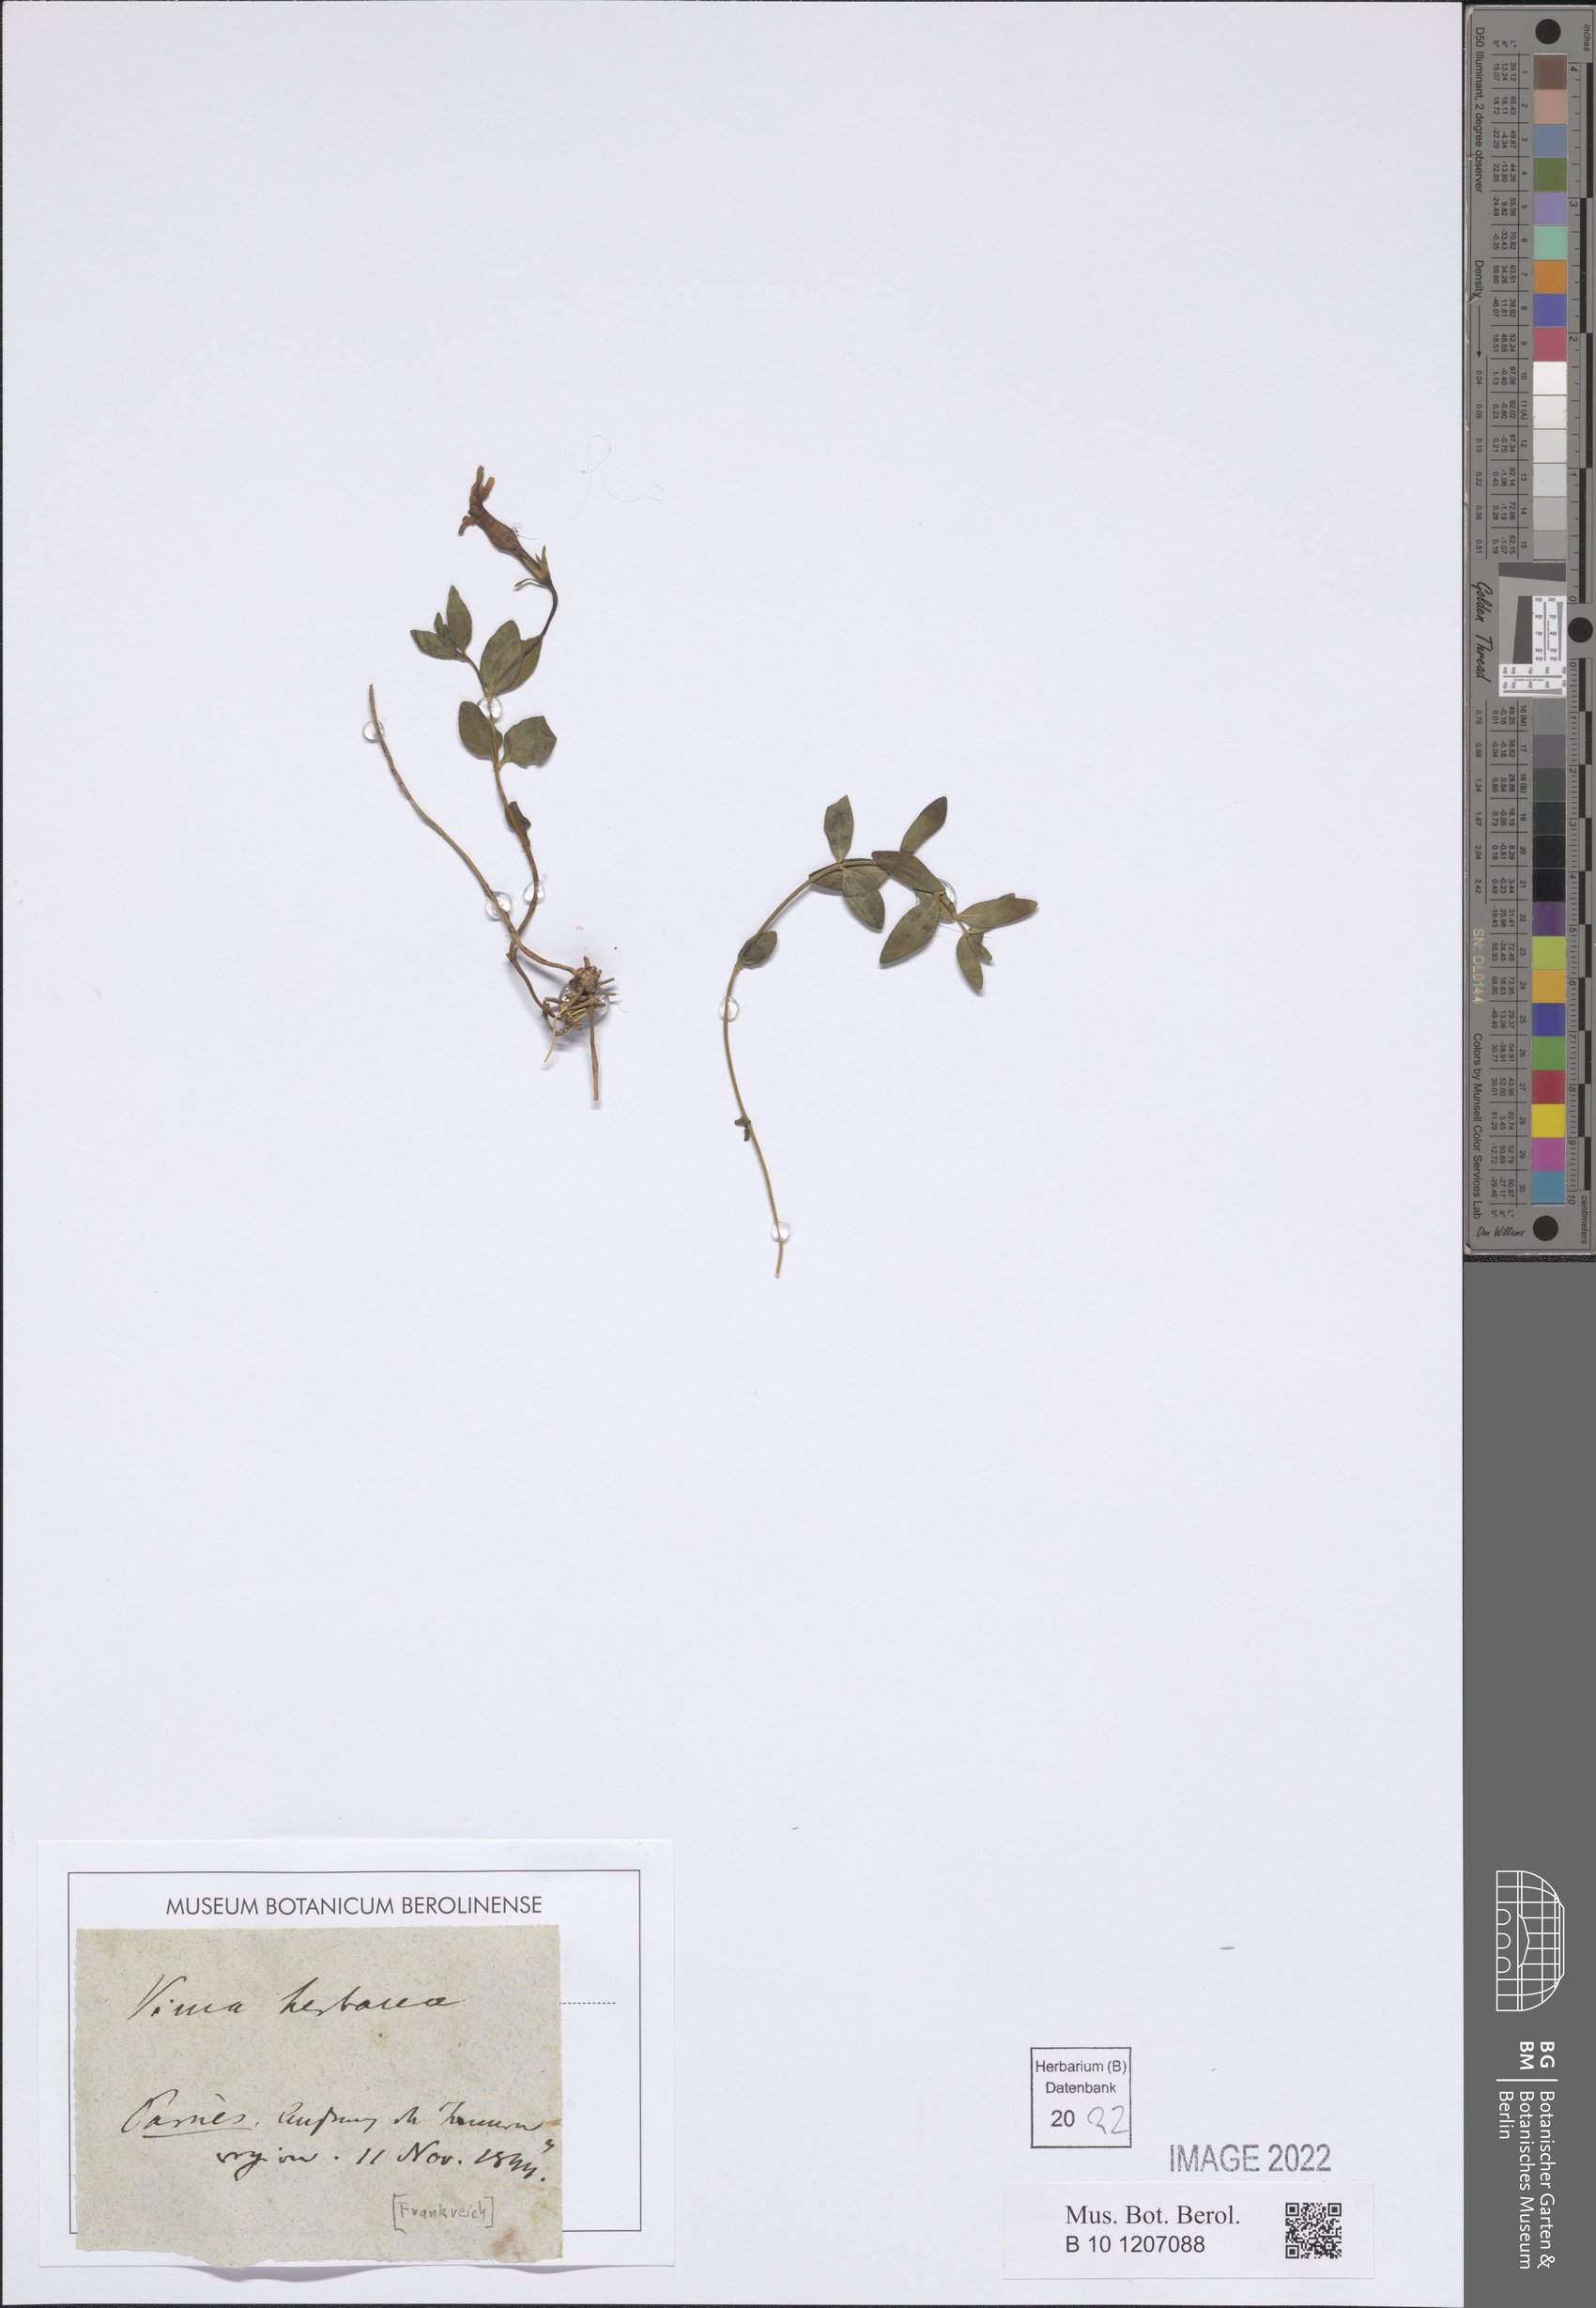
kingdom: Plantae
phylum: Tracheophyta
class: Magnoliopsida
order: Gentianales
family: Apocynaceae
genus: Vinca
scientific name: Vinca herbacea
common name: Herbaceous periwinkle
